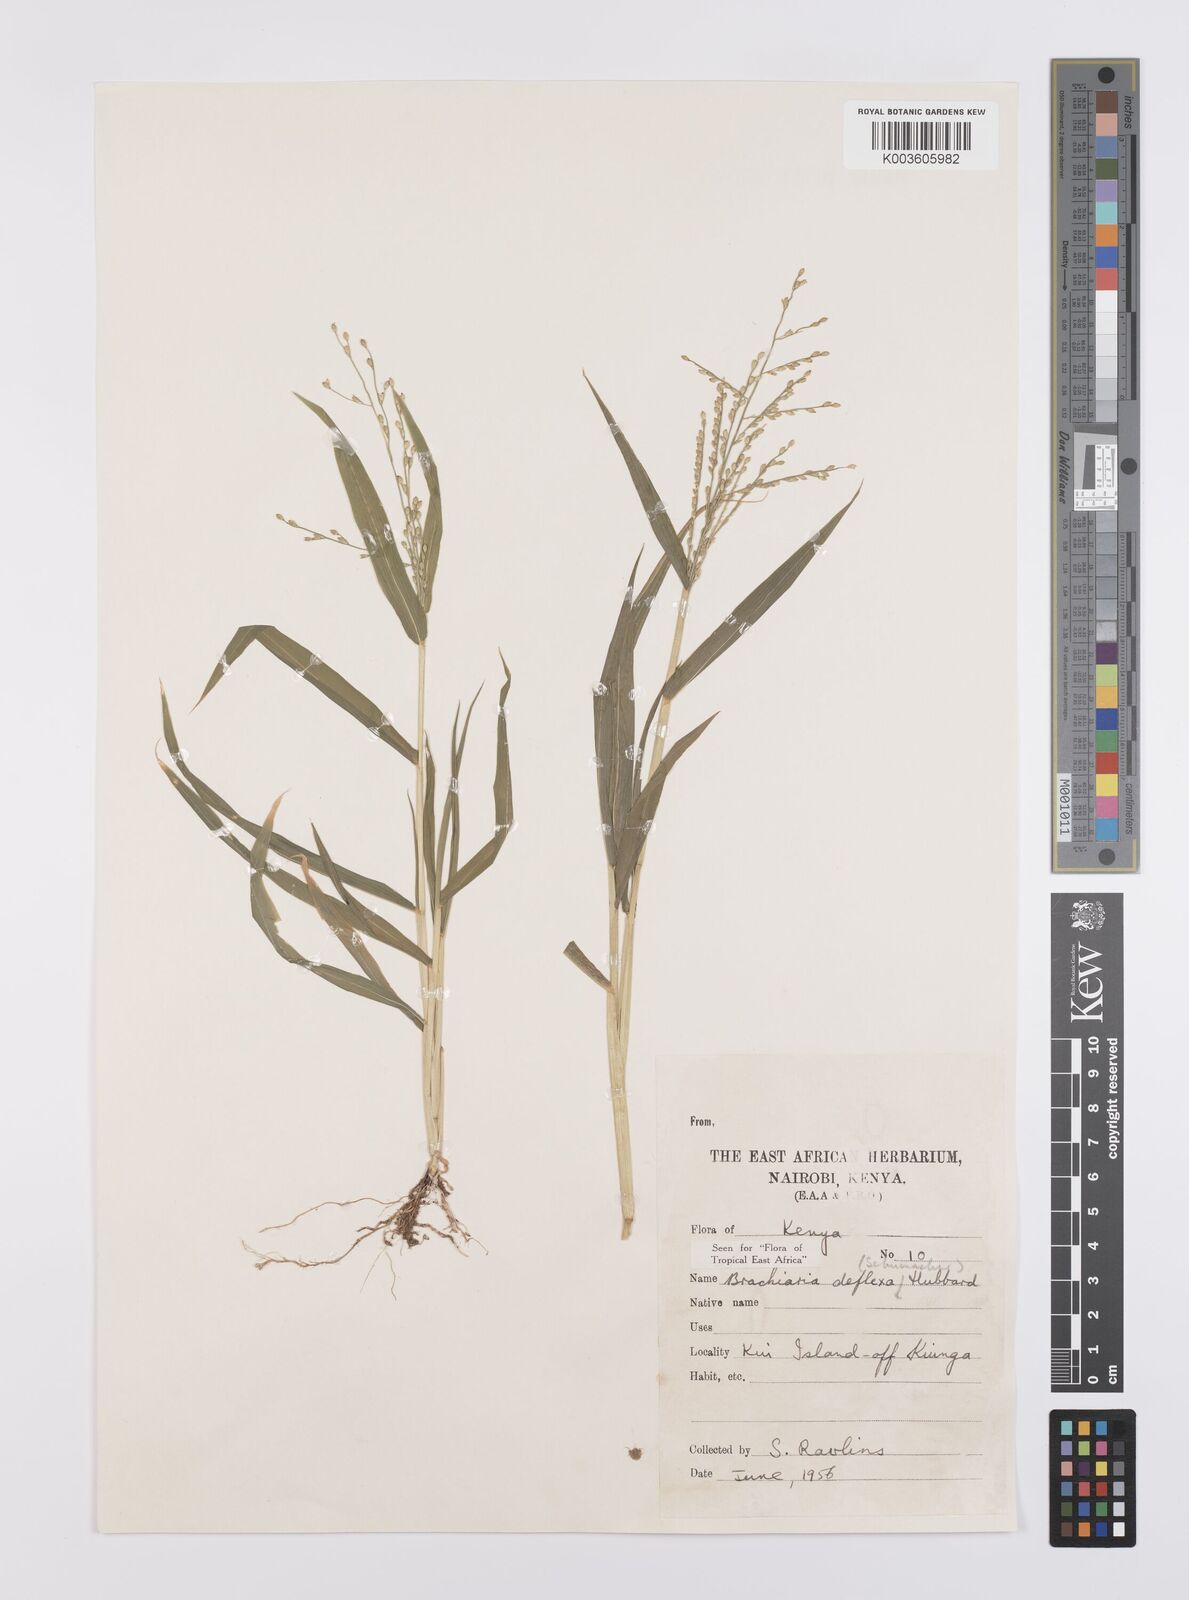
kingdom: Plantae
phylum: Tracheophyta
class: Liliopsida
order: Poales
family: Poaceae
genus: Urochloa
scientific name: Urochloa deflexa
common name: Guinea millet
